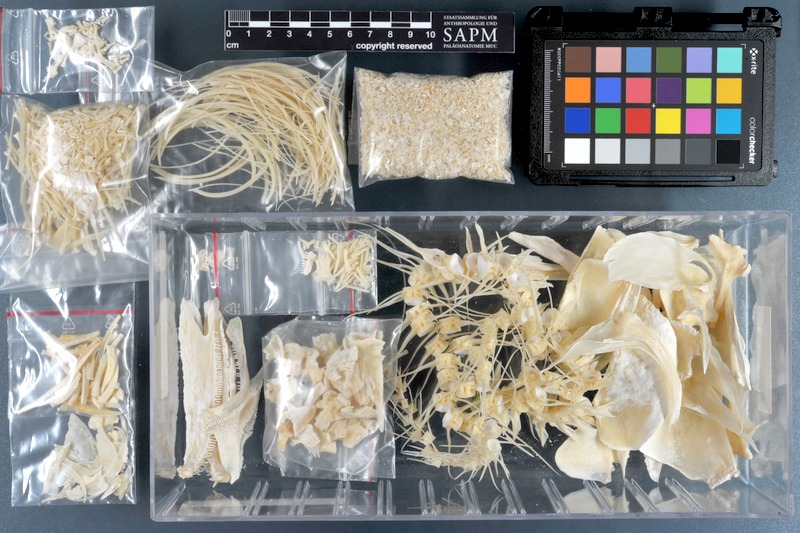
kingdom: Animalia
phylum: Chordata
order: Osteoglossiformes
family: Osteoglossidae
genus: Osteoglossum
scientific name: Osteoglossum bicirrhosum
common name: Arawana
